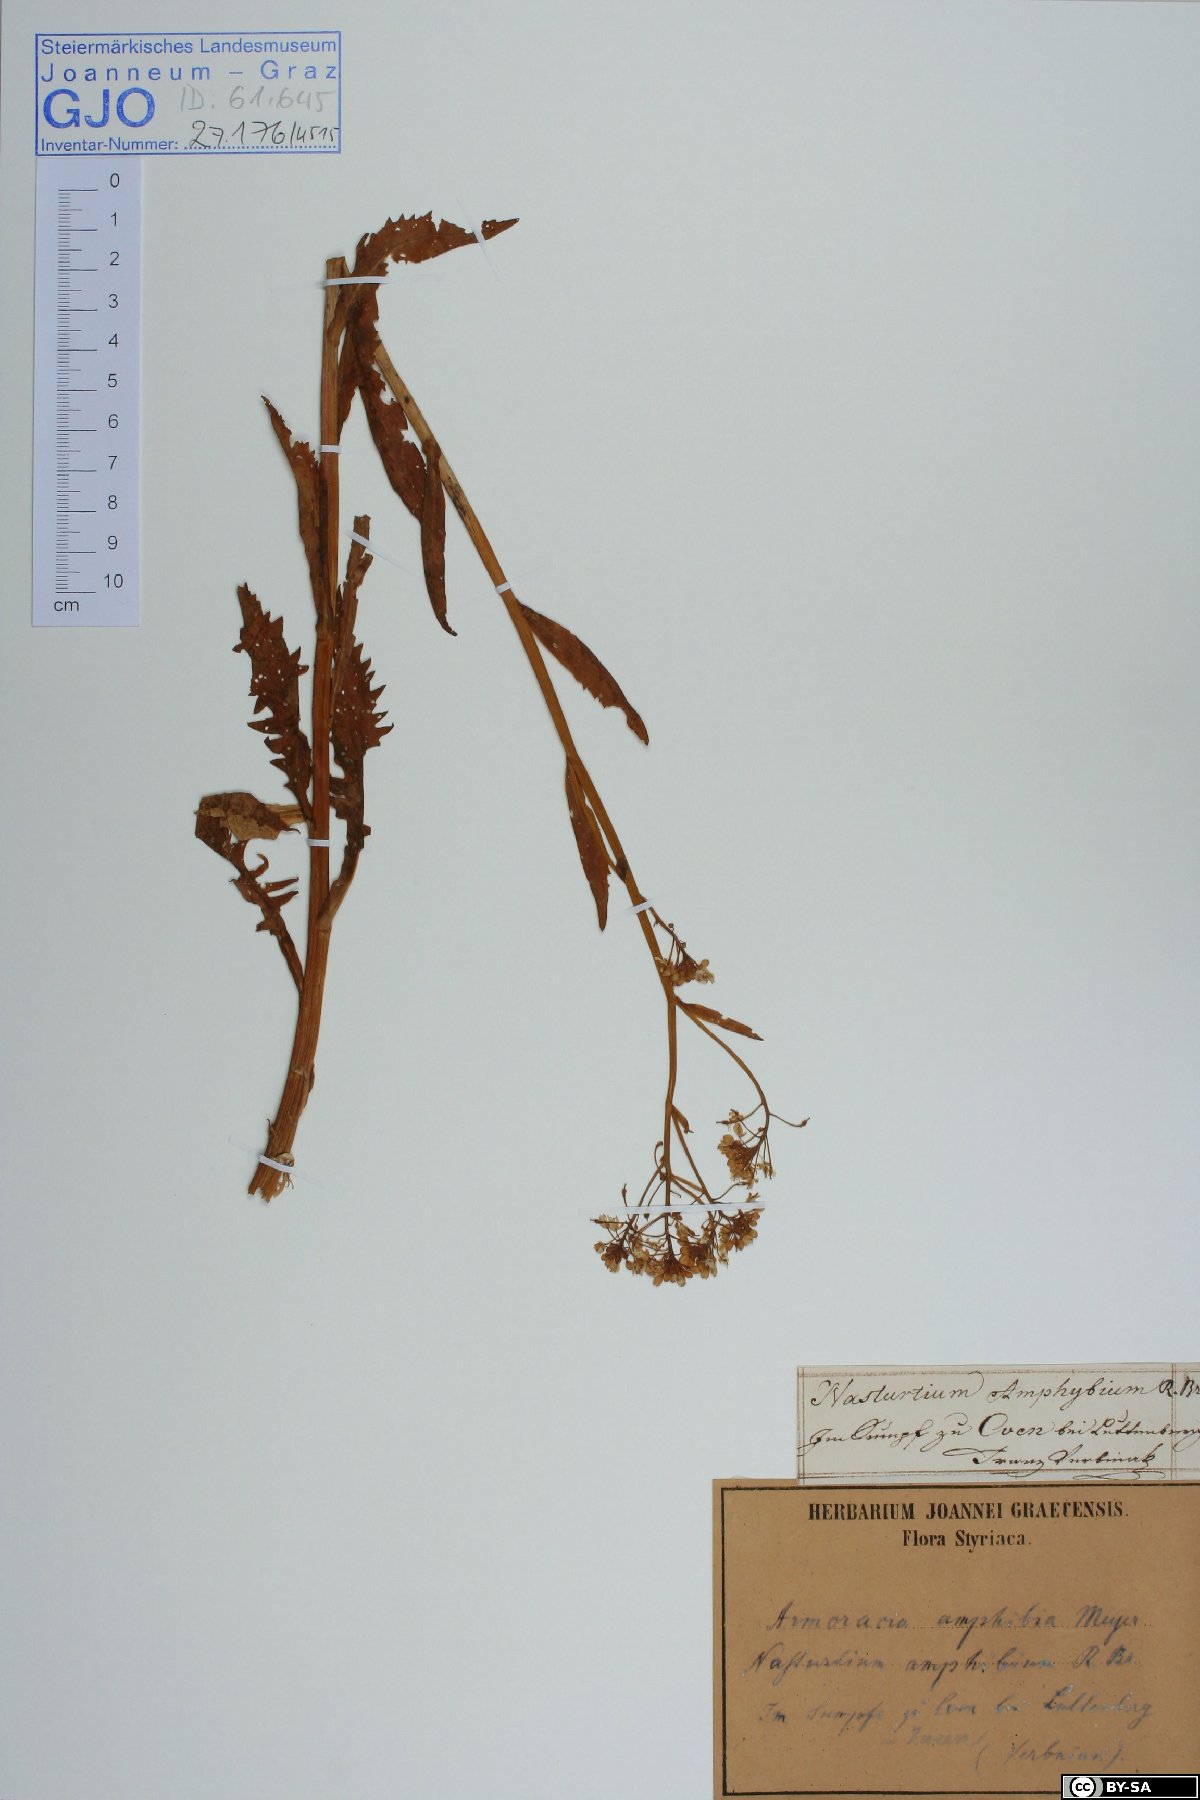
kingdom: Plantae
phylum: Tracheophyta
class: Magnoliopsida
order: Brassicales
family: Brassicaceae
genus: Rorippa
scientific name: Rorippa amphibia
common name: Great yellow-cress
